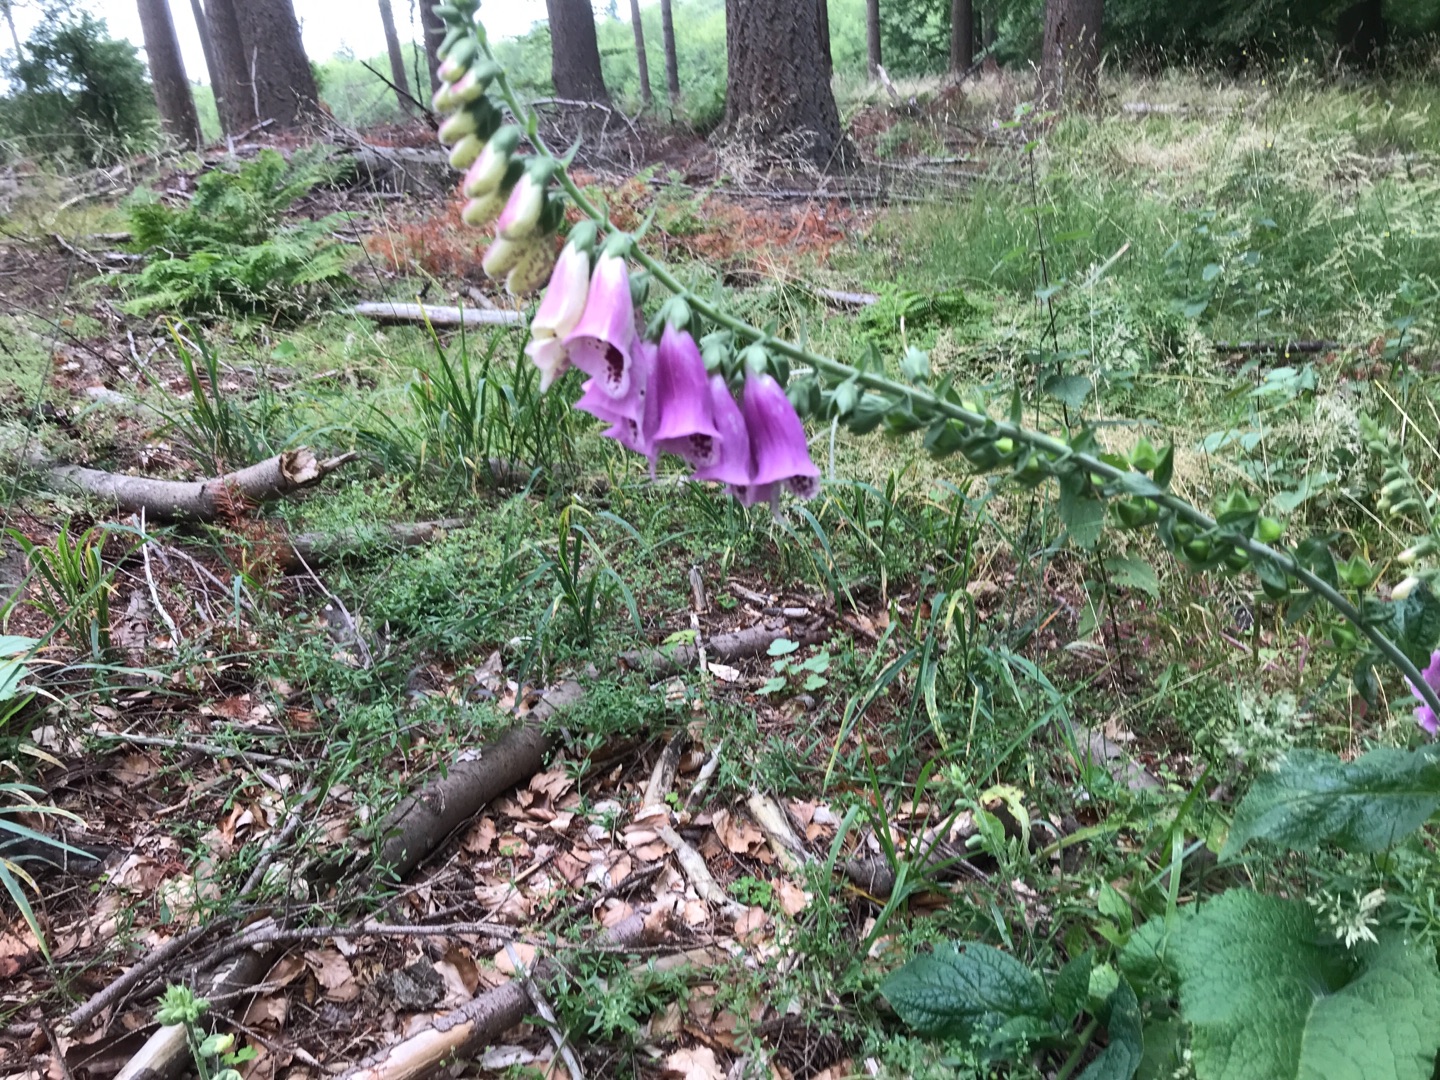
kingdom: Plantae
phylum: Tracheophyta
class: Magnoliopsida
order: Lamiales
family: Plantaginaceae
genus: Digitalis
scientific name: Digitalis purpurea
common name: Almindelig fingerbøl
